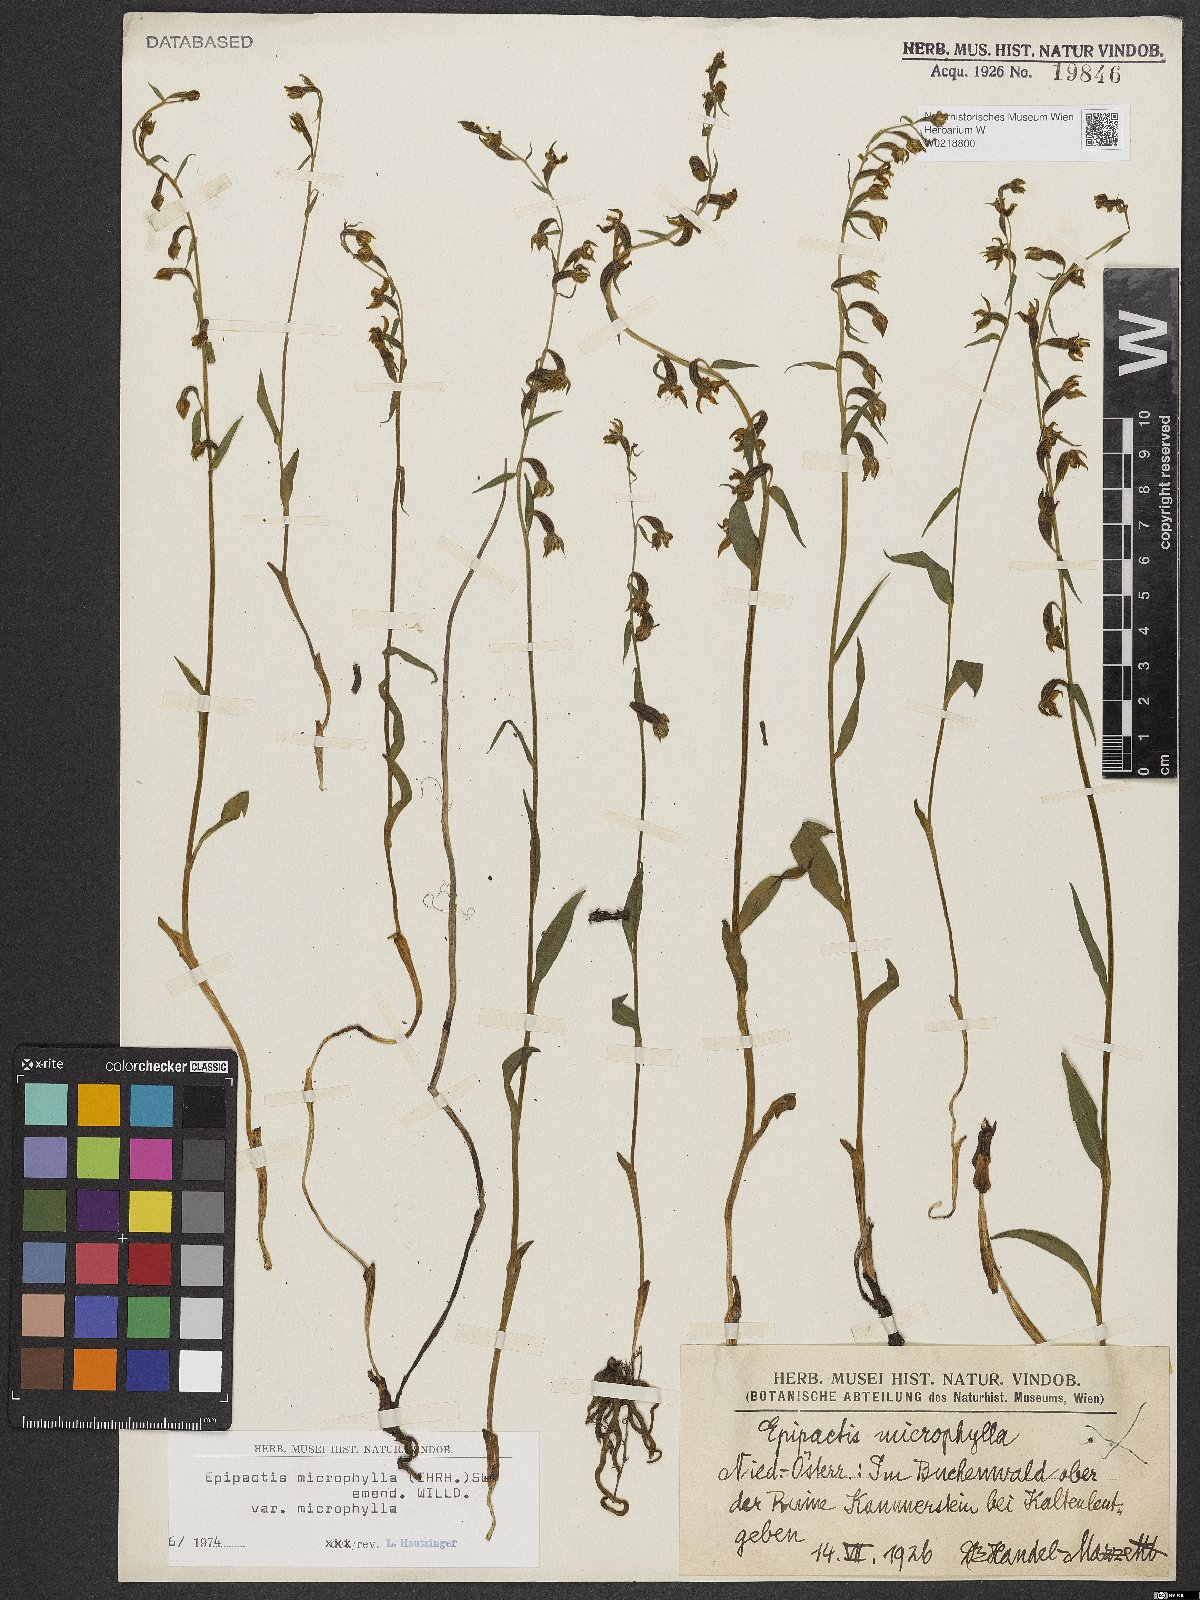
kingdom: Plantae
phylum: Tracheophyta
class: Liliopsida
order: Asparagales
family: Orchidaceae
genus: Epipactis
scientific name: Epipactis microphylla
